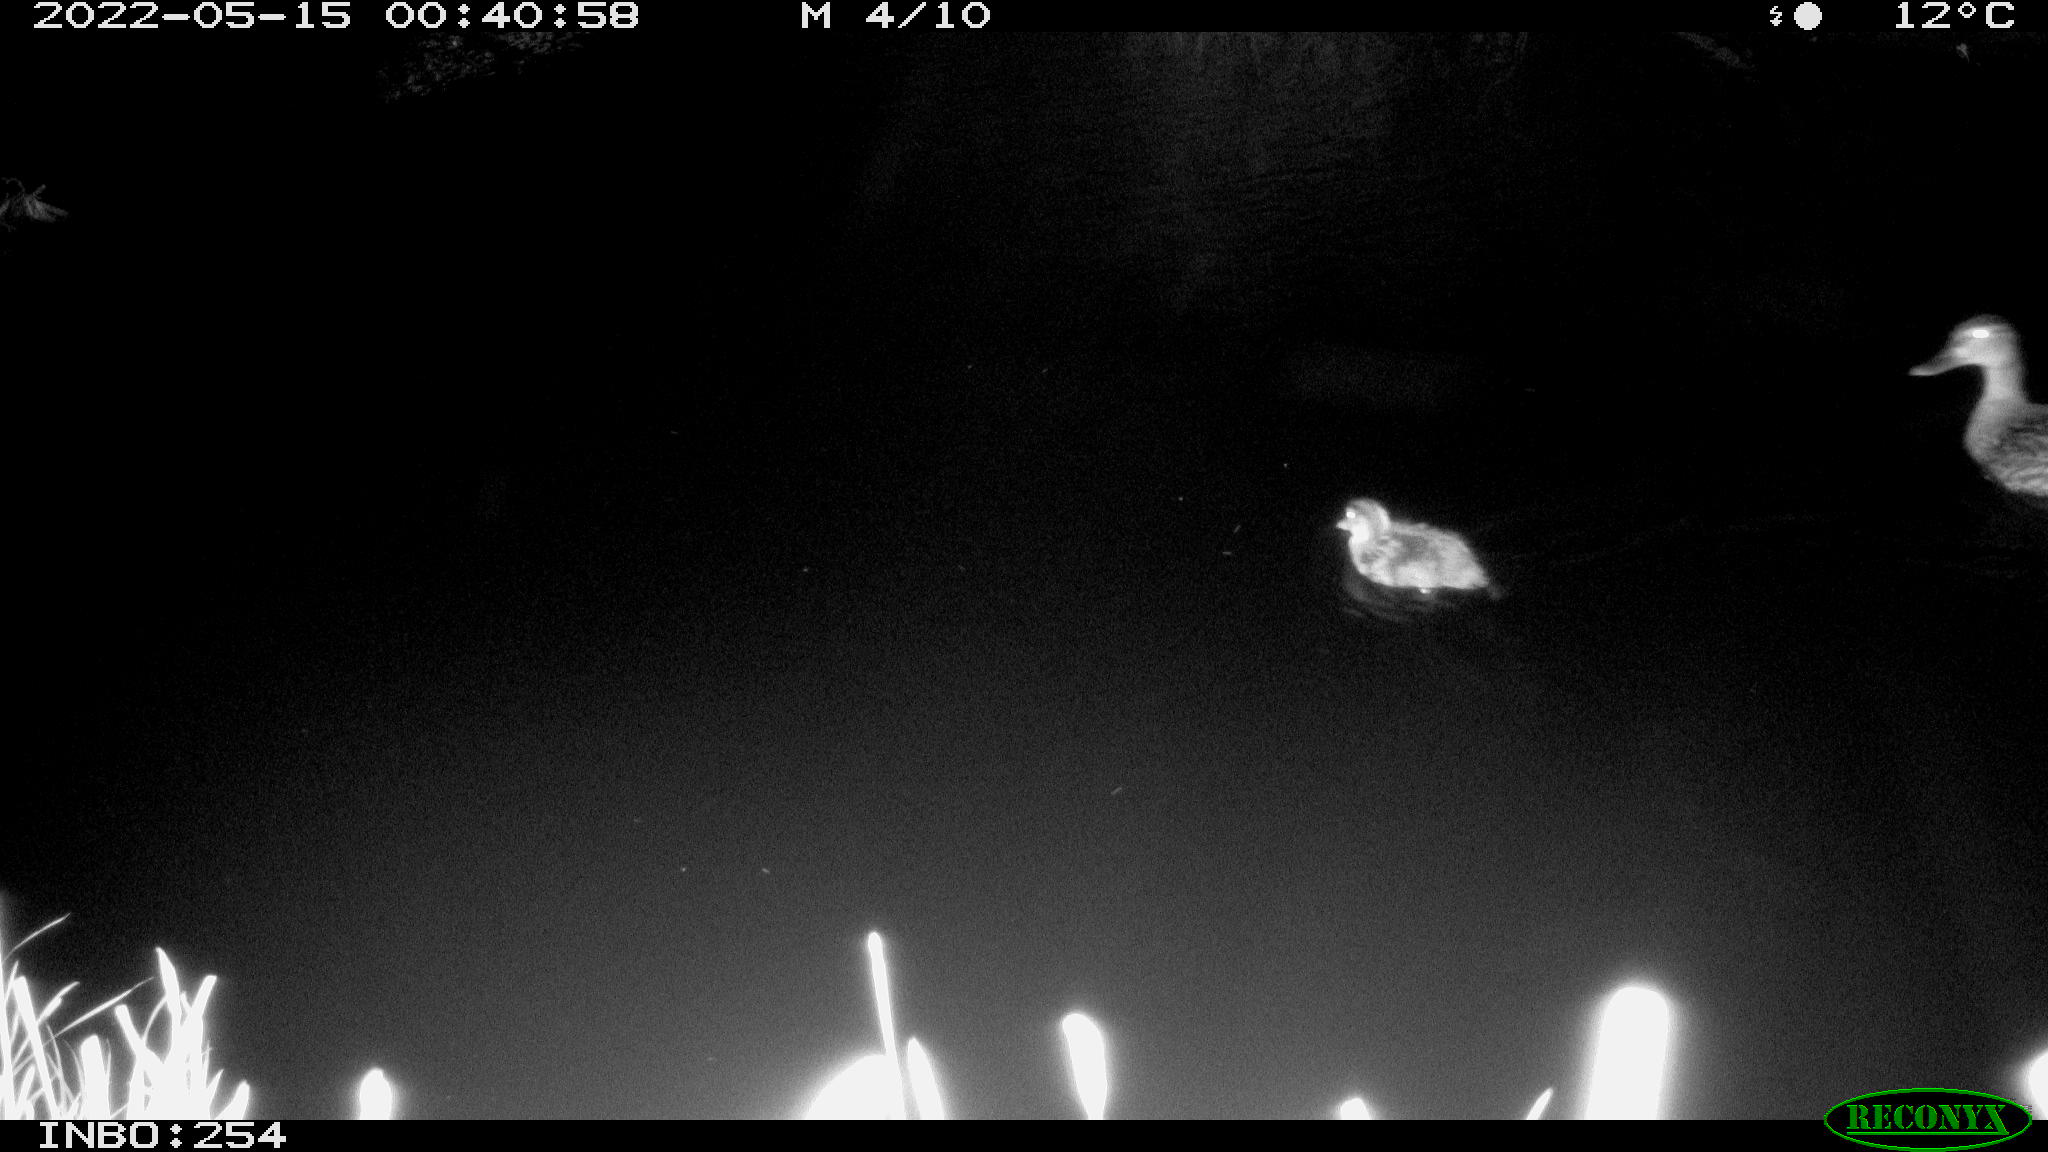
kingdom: Animalia
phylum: Chordata
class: Aves
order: Anseriformes
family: Anatidae
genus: Anas
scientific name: Anas platyrhynchos
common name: Mallard
